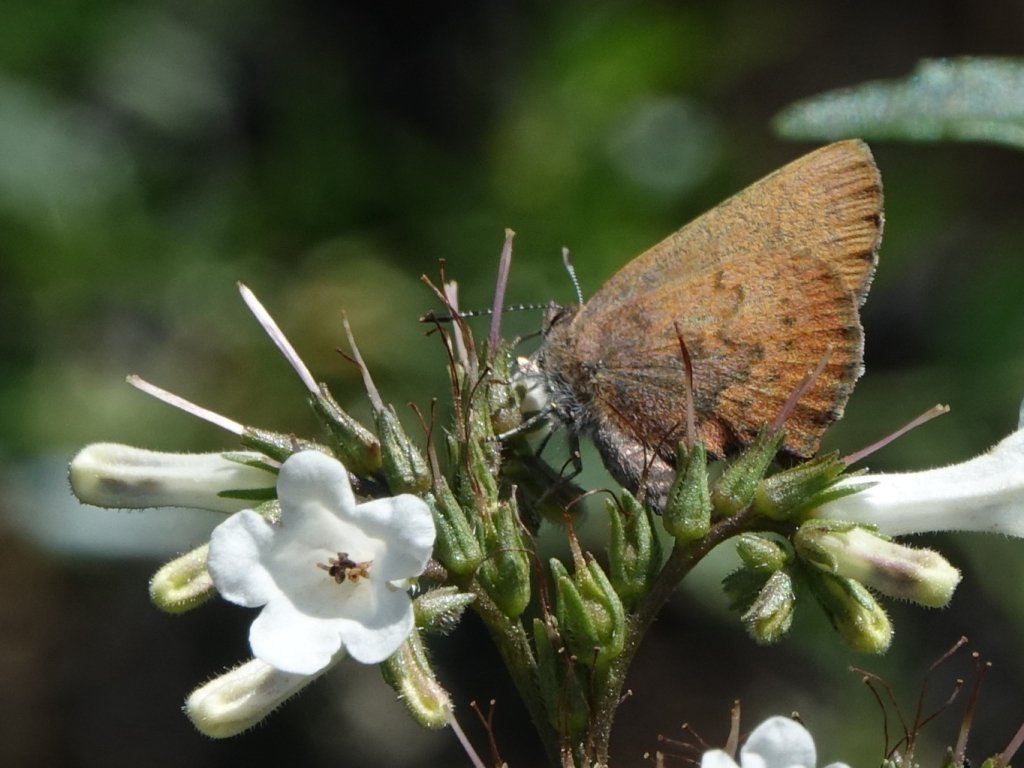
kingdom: Animalia
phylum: Arthropoda
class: Insecta
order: Lepidoptera
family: Lycaenidae
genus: Incisalia
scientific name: Incisalia irioides
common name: Brown Elfin
